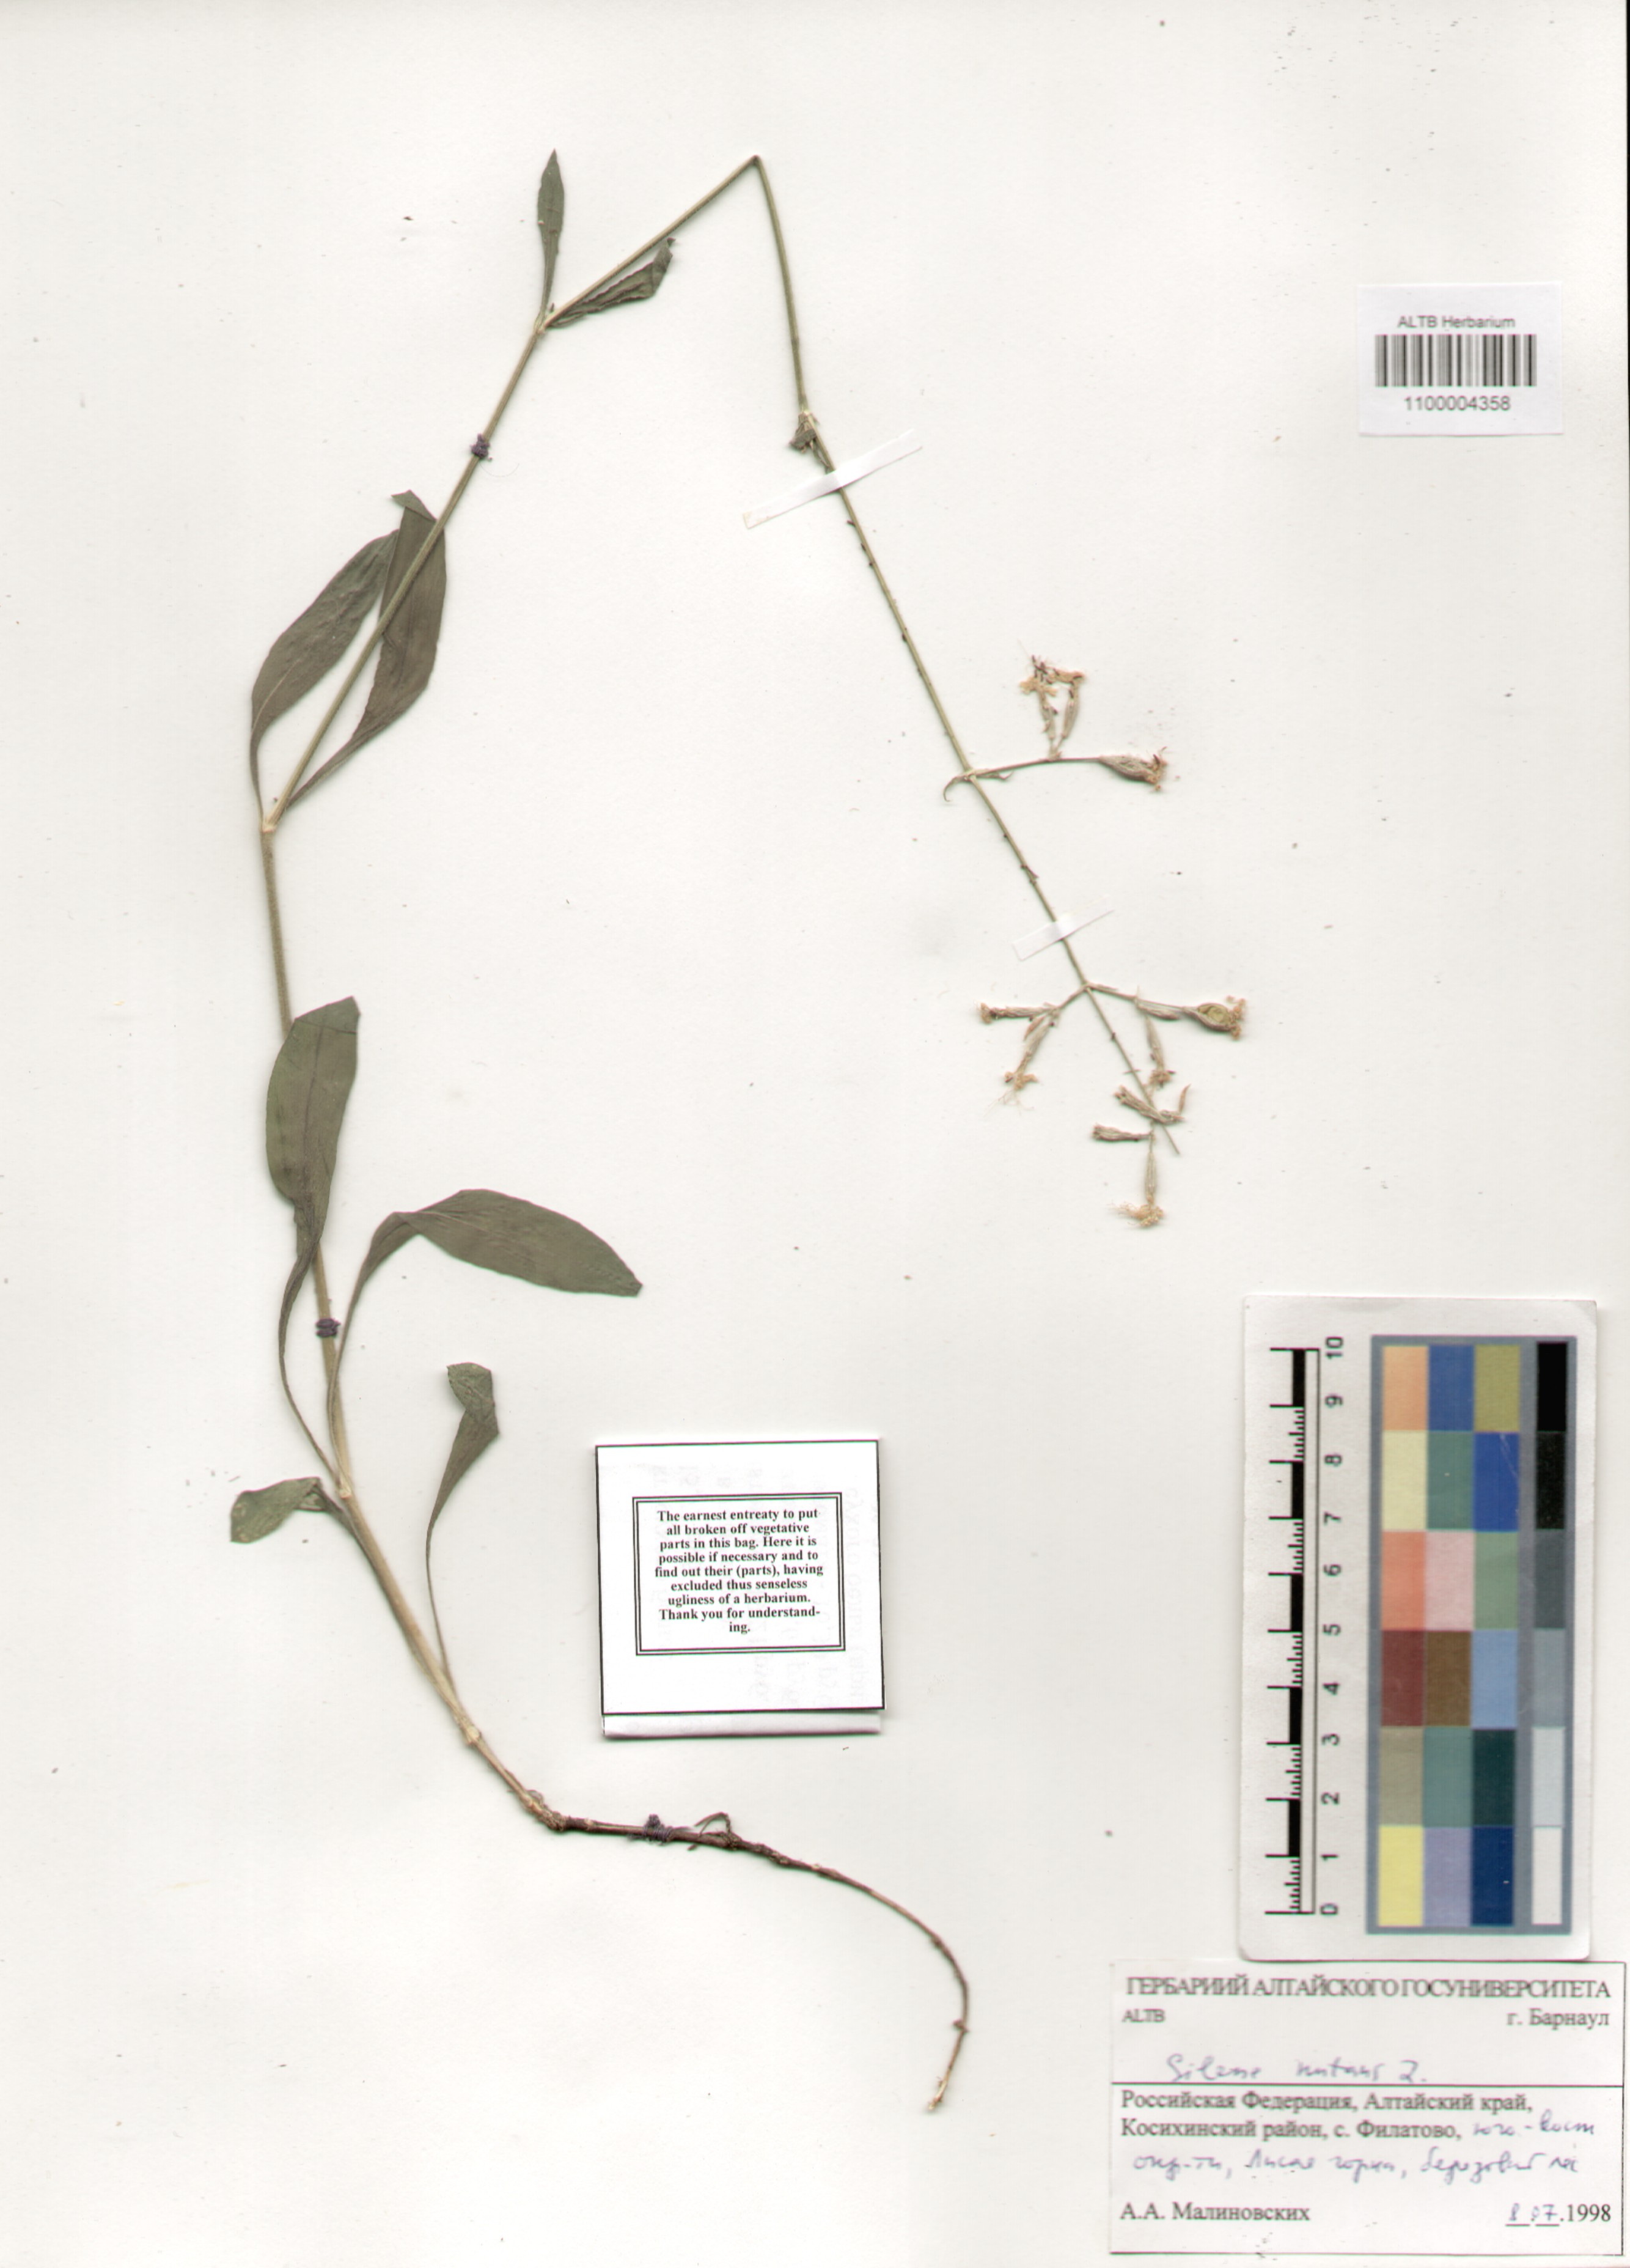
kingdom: Plantae
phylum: Tracheophyta
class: Magnoliopsida
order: Caryophyllales
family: Caryophyllaceae
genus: Silene
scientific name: Silene nutans
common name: Nottingham catchfly
